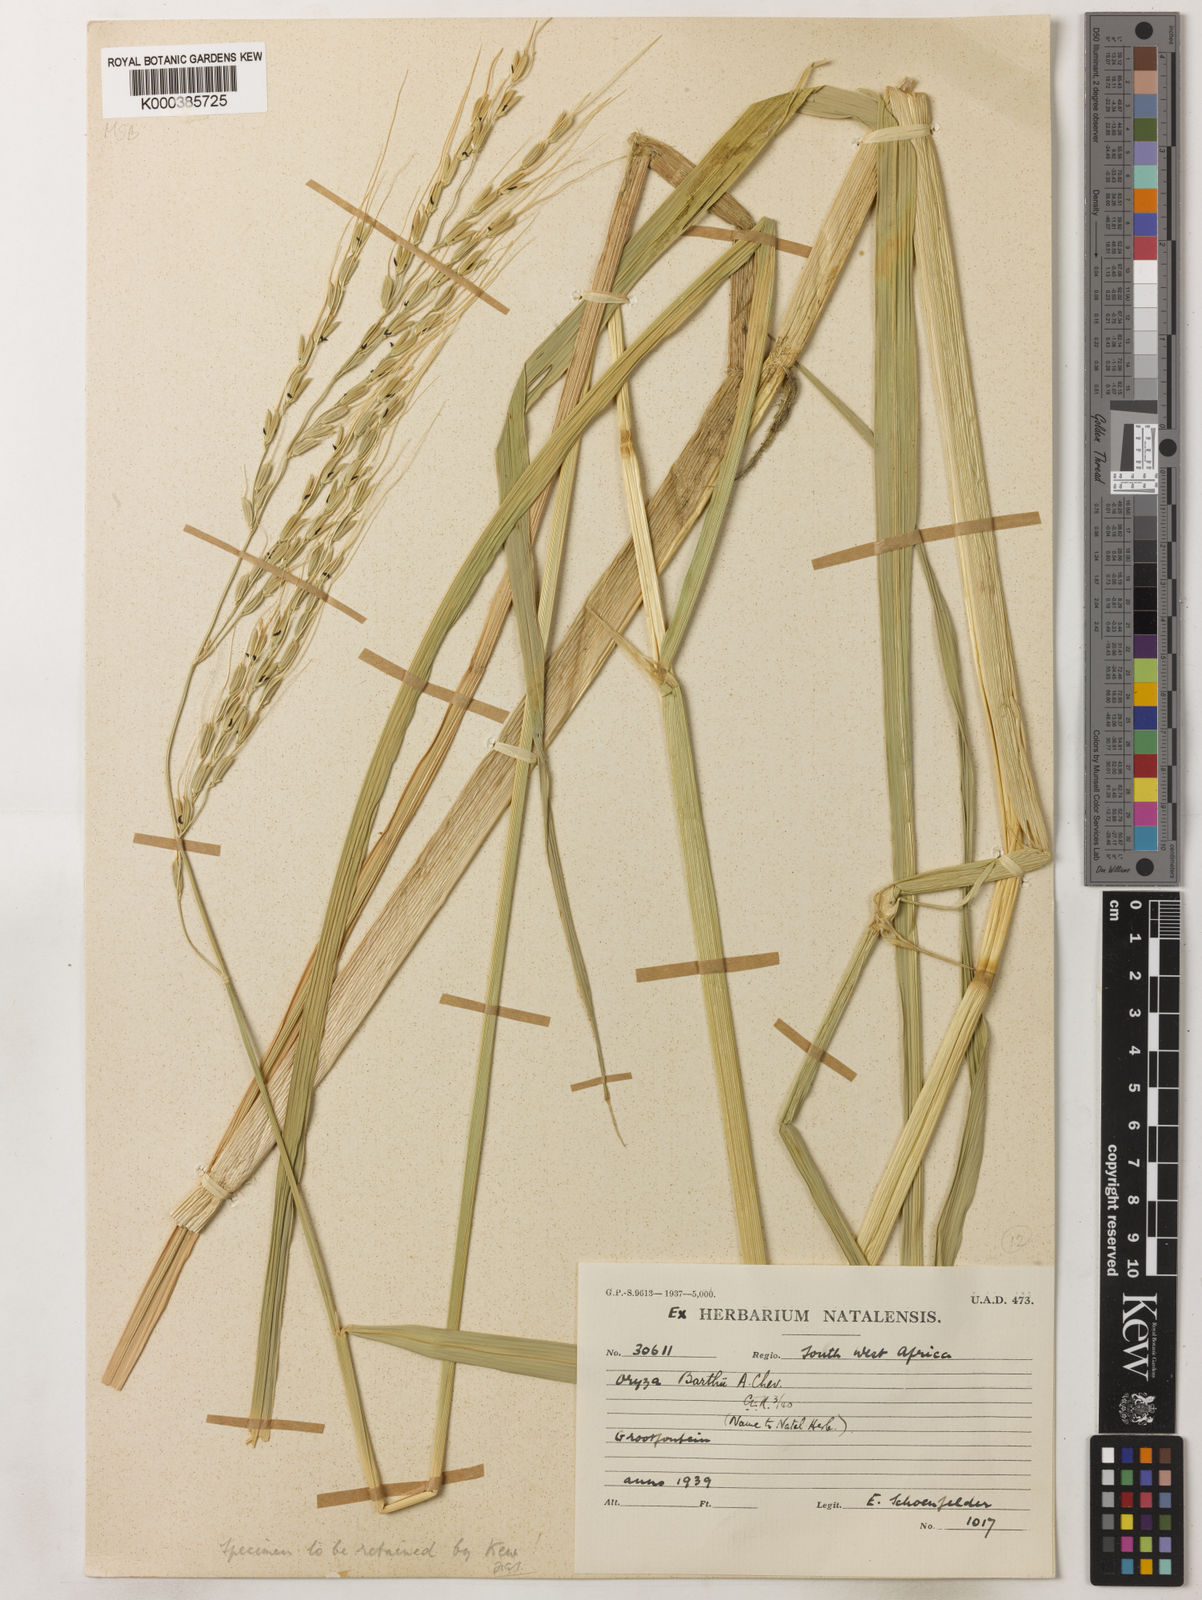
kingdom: Plantae
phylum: Tracheophyta
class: Liliopsida
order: Poales
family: Poaceae
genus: Oryza
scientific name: Oryza longistaminata
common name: Red rice
